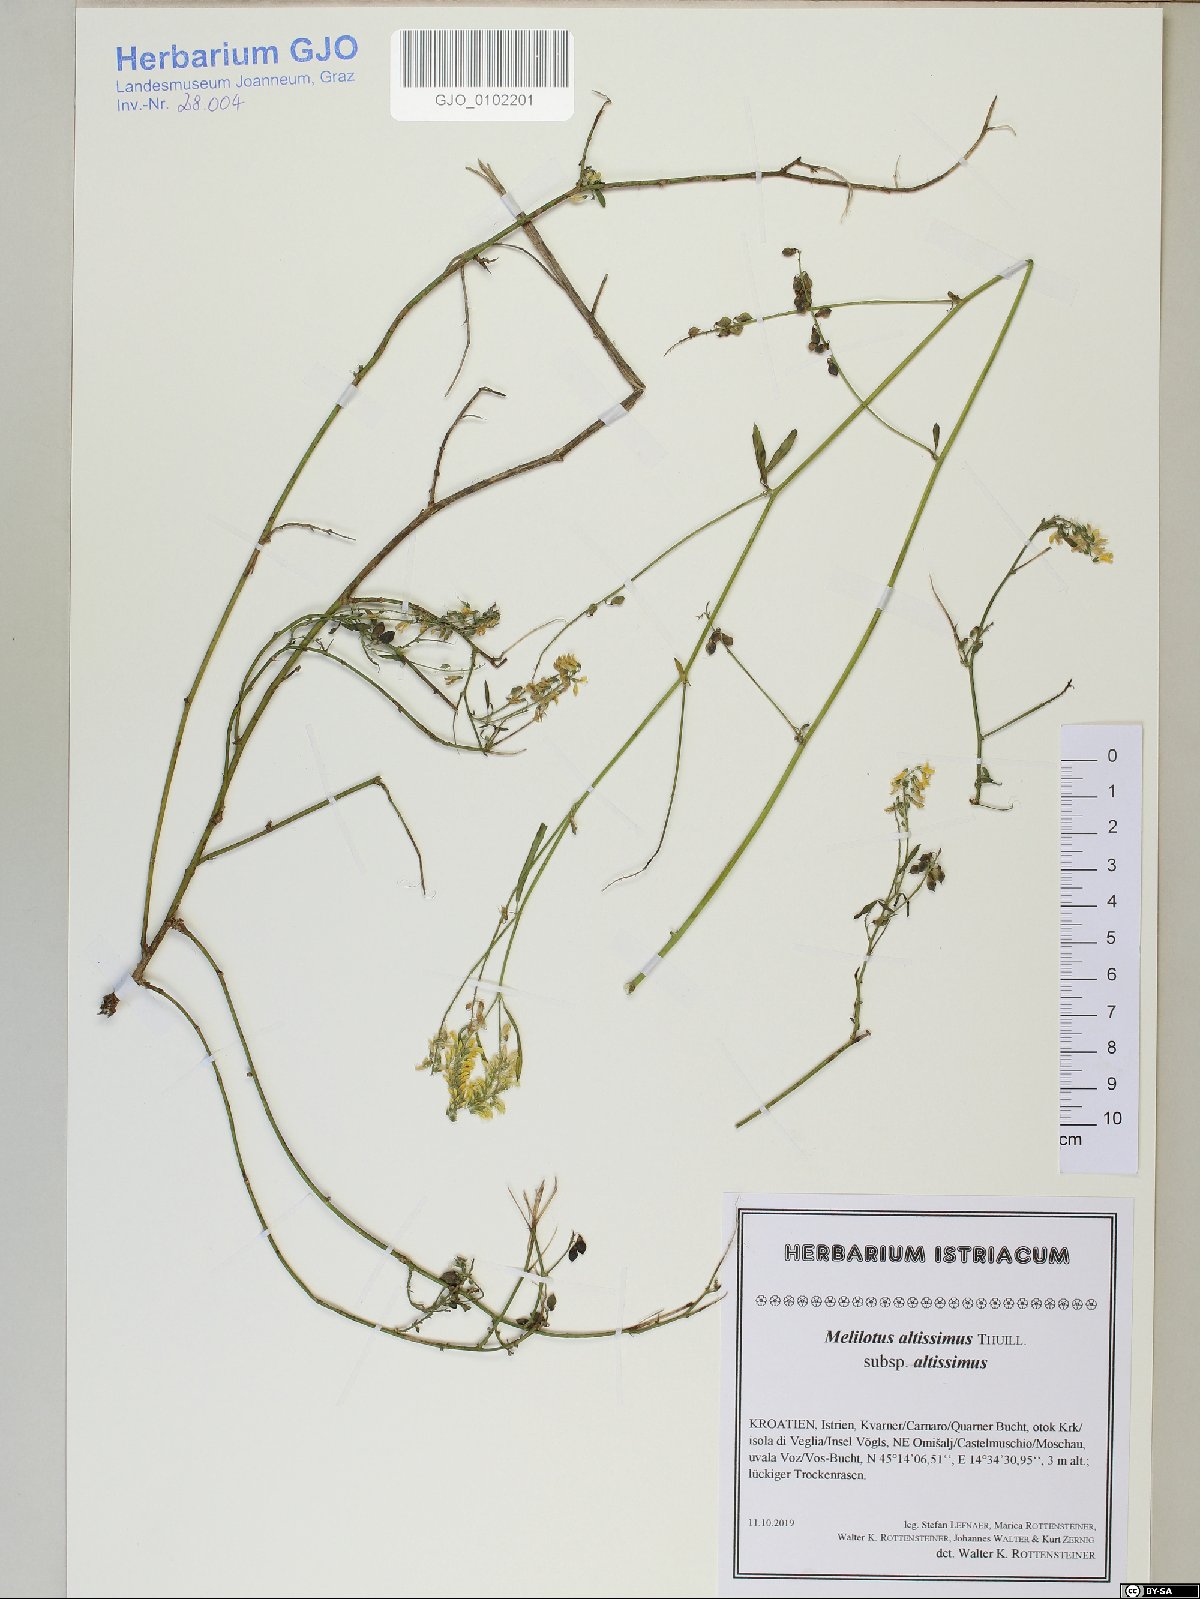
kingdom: Plantae
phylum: Tracheophyta
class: Magnoliopsida
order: Fabales
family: Fabaceae
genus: Melilotus
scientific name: Melilotus altissimus
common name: Tall melilot
